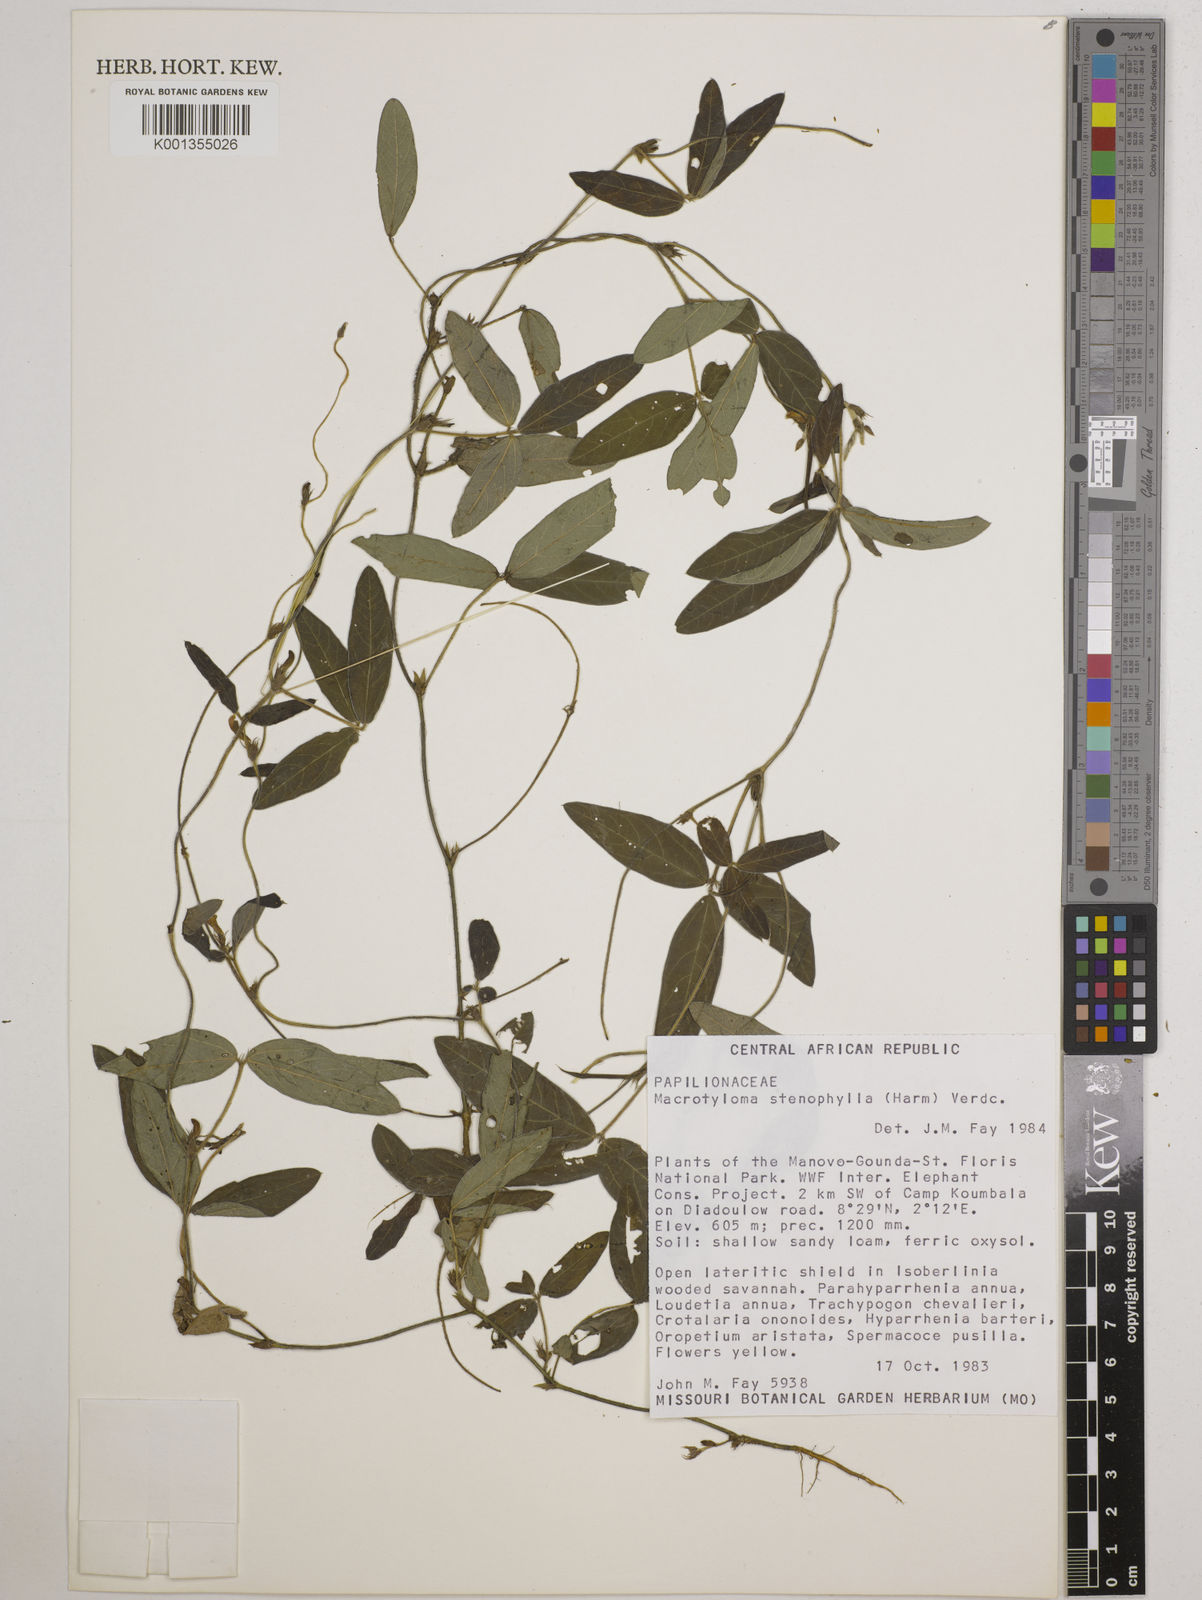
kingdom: Plantae
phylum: Tracheophyta
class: Magnoliopsida
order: Fabales
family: Fabaceae
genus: Macrotyloma
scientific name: Macrotyloma stenophyllum
